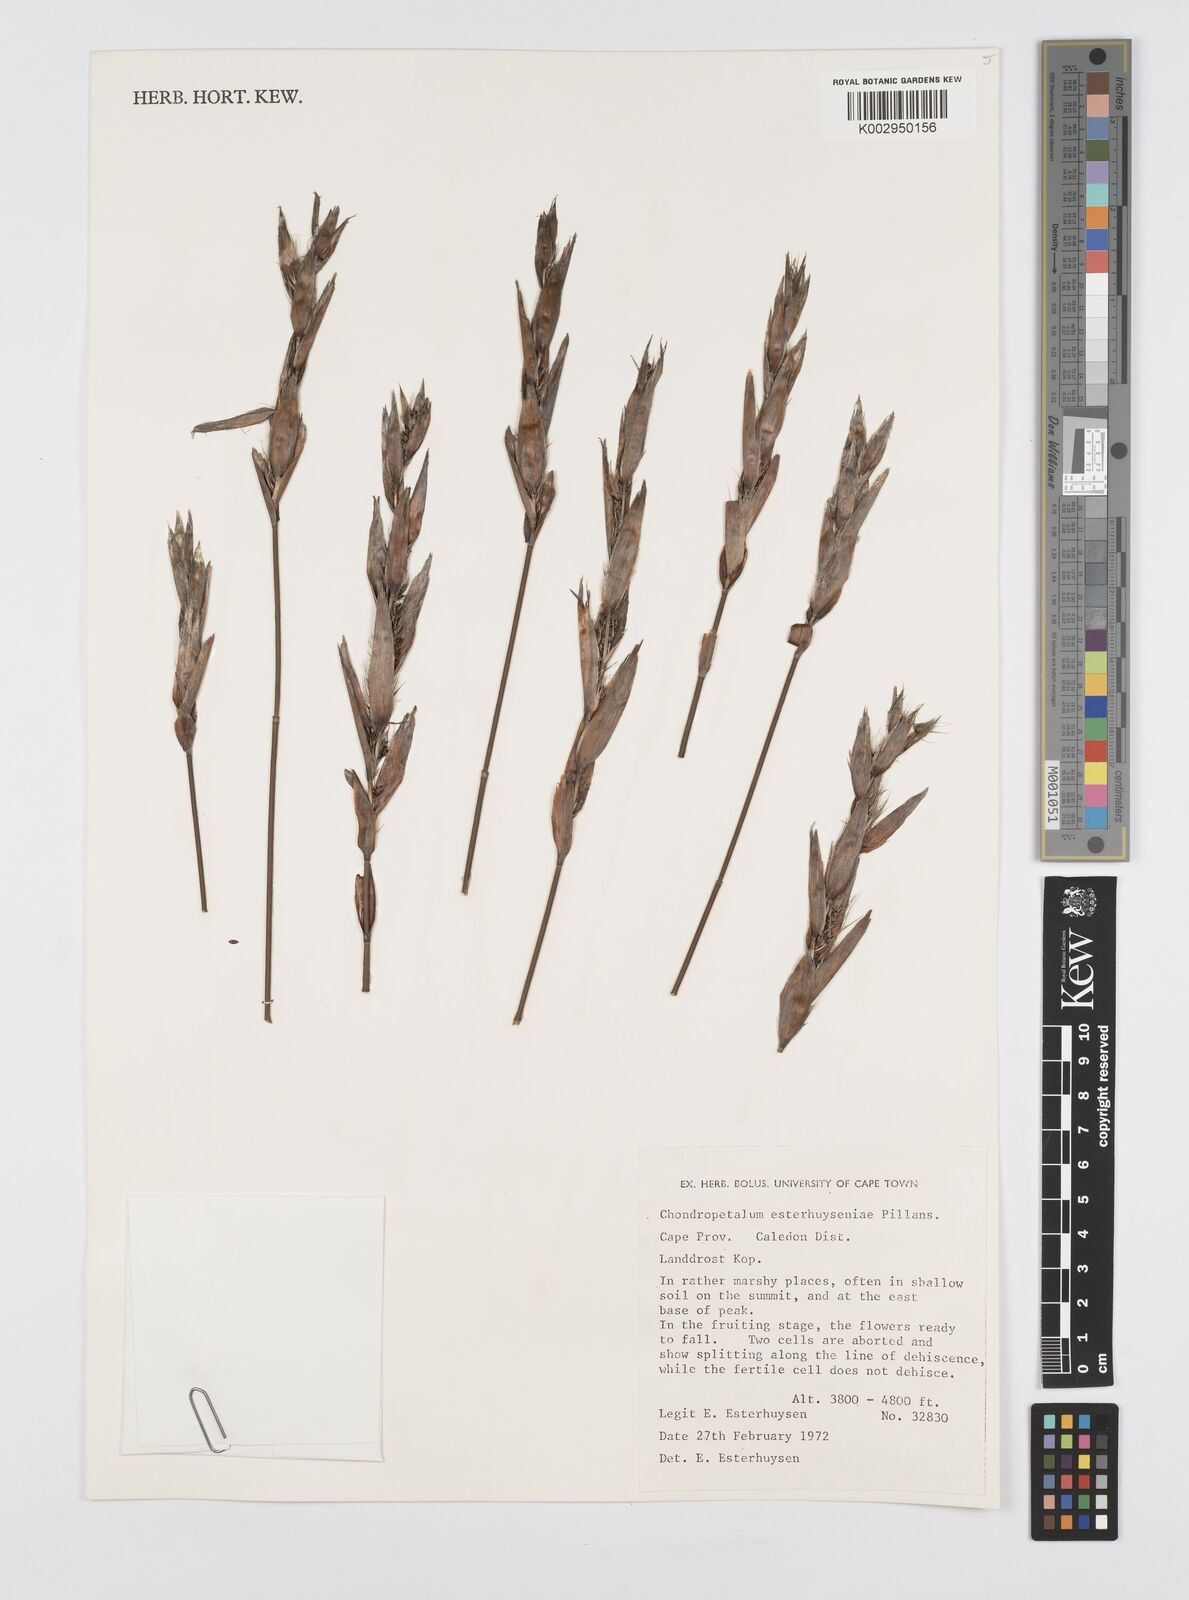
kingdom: Plantae
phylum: Tracheophyta
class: Liliopsida
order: Poales
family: Restionaceae
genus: Askidiosperma
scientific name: Askidiosperma esterhuyseniae
